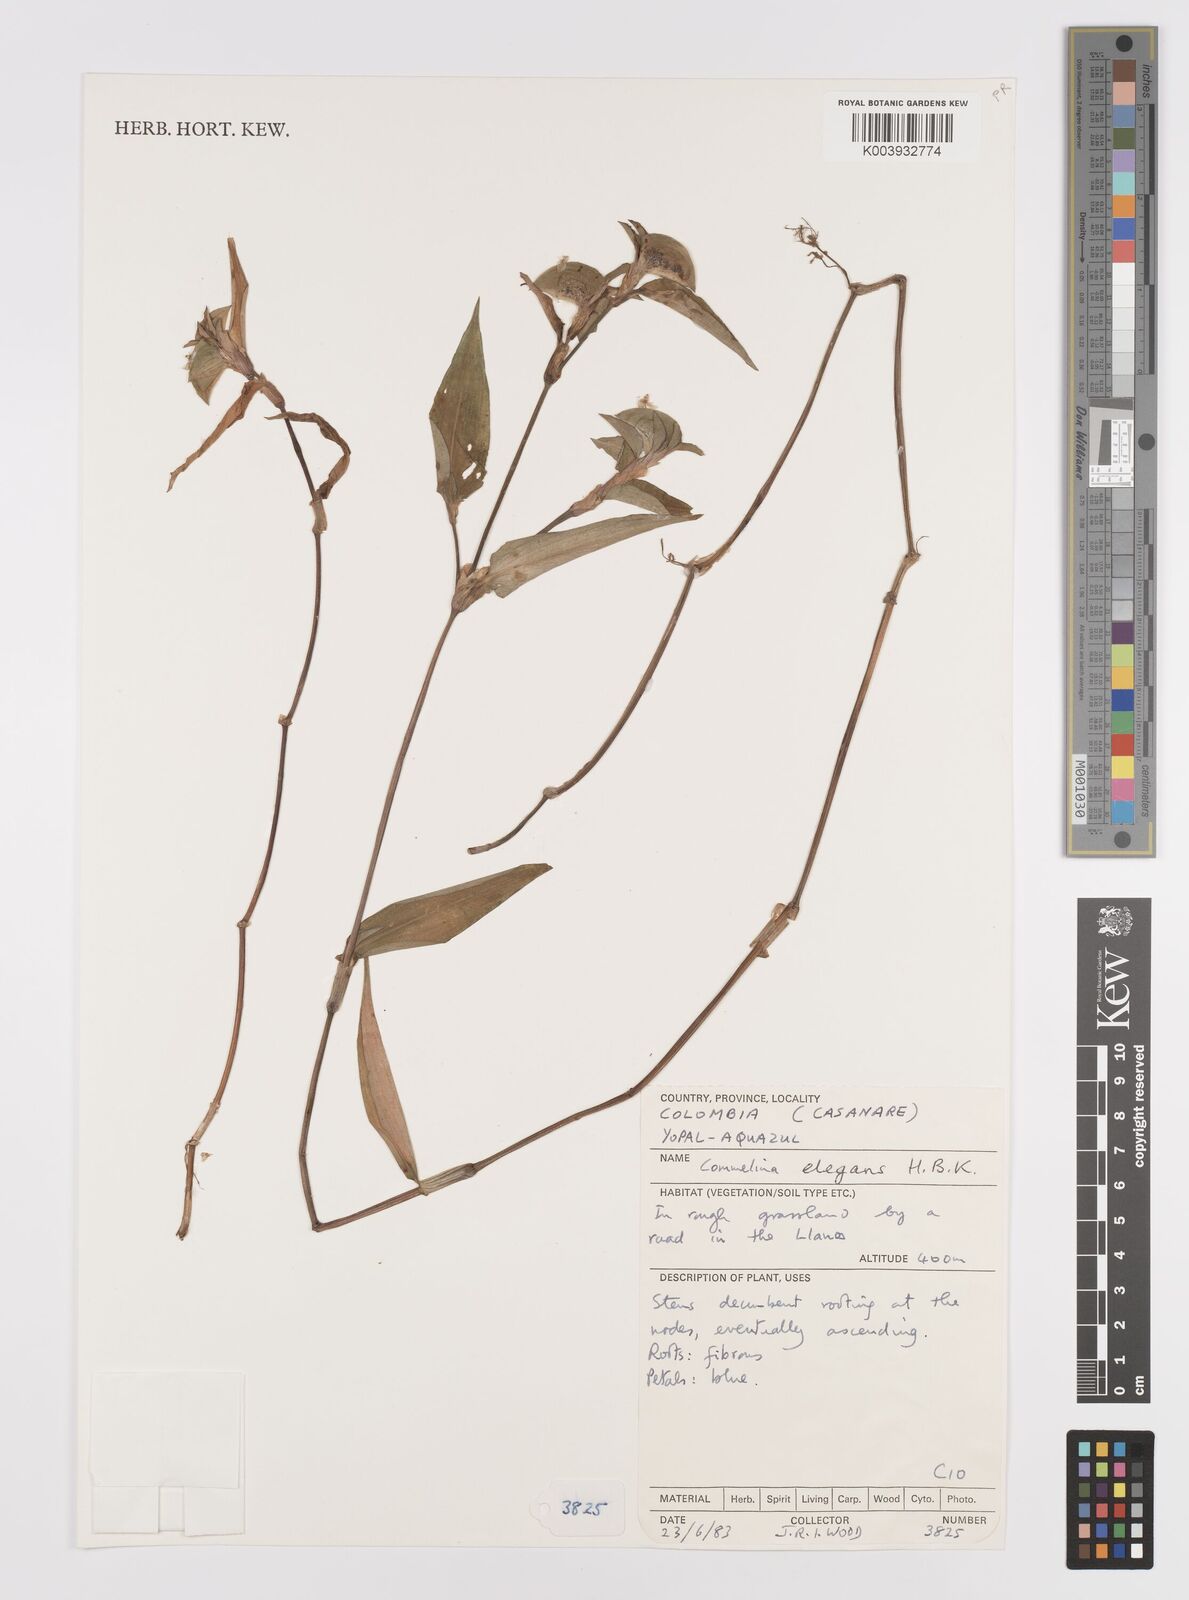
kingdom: Plantae
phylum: Tracheophyta
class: Liliopsida
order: Commelinales
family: Commelinaceae
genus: Commelina
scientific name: Commelina virginica
